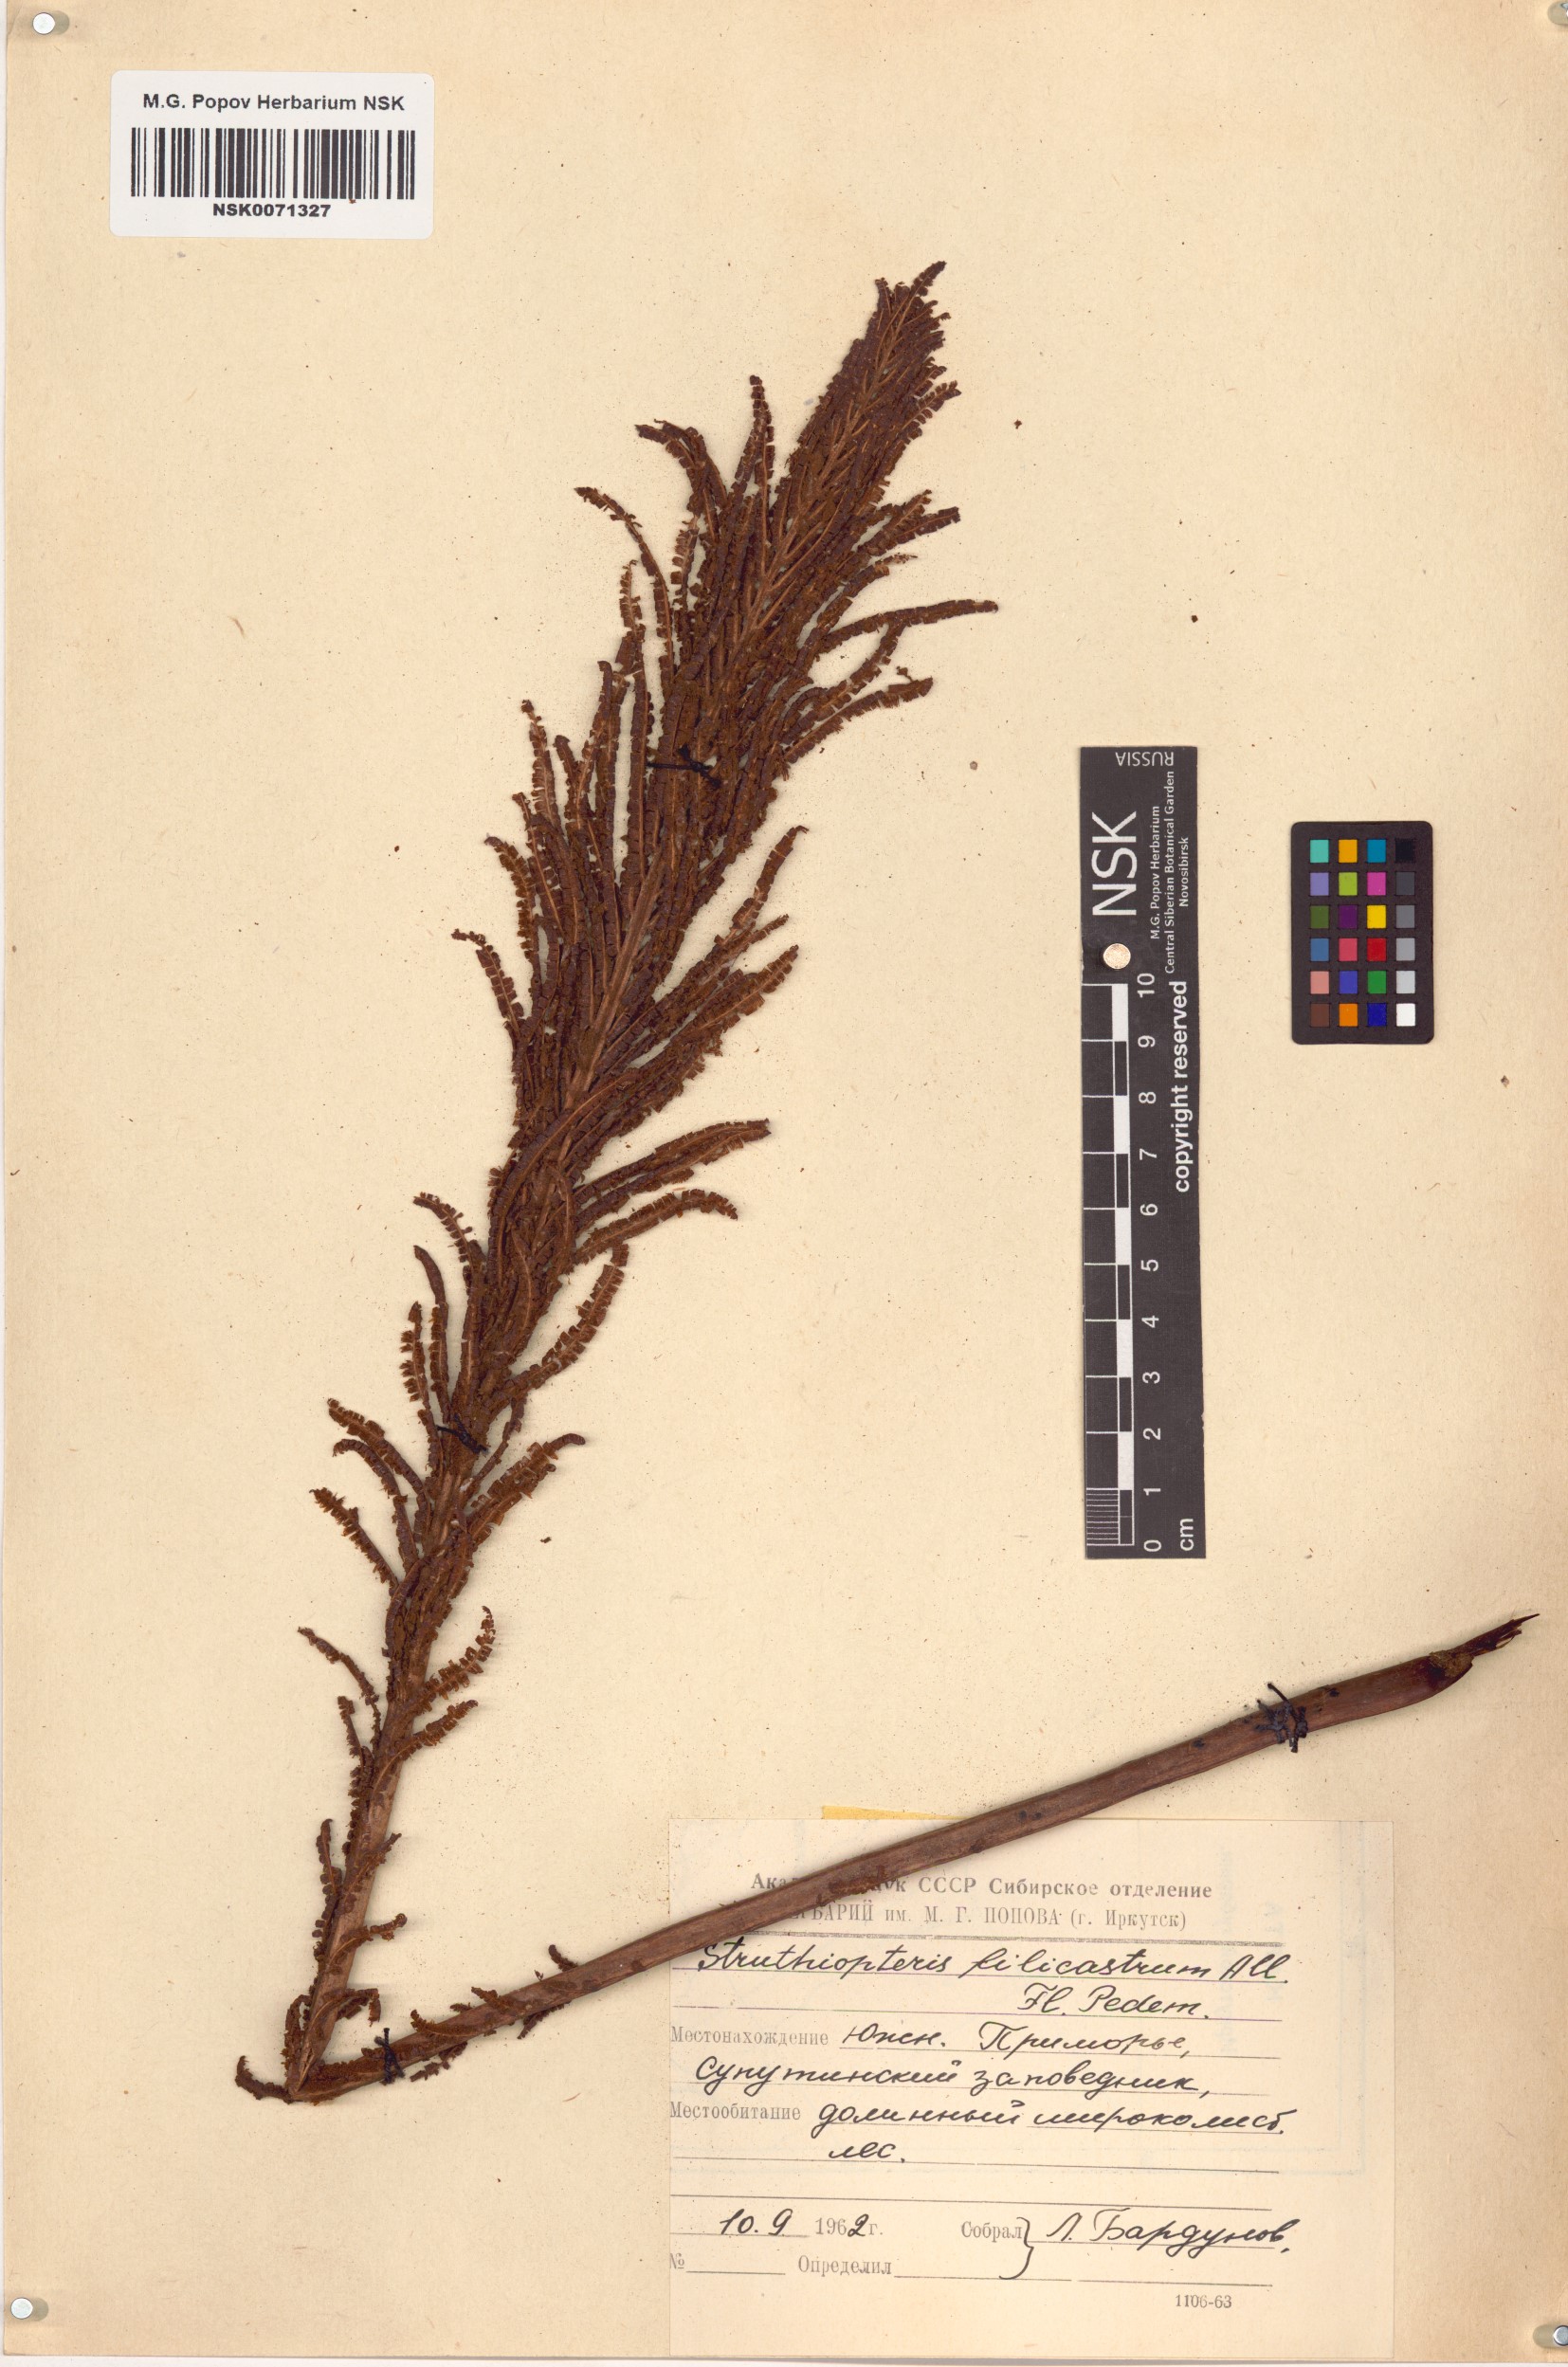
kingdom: Plantae
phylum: Tracheophyta
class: Polypodiopsida
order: Polypodiales
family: Onocleaceae
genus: Matteuccia
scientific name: Matteuccia struthiopteris
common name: Ostrich fern
